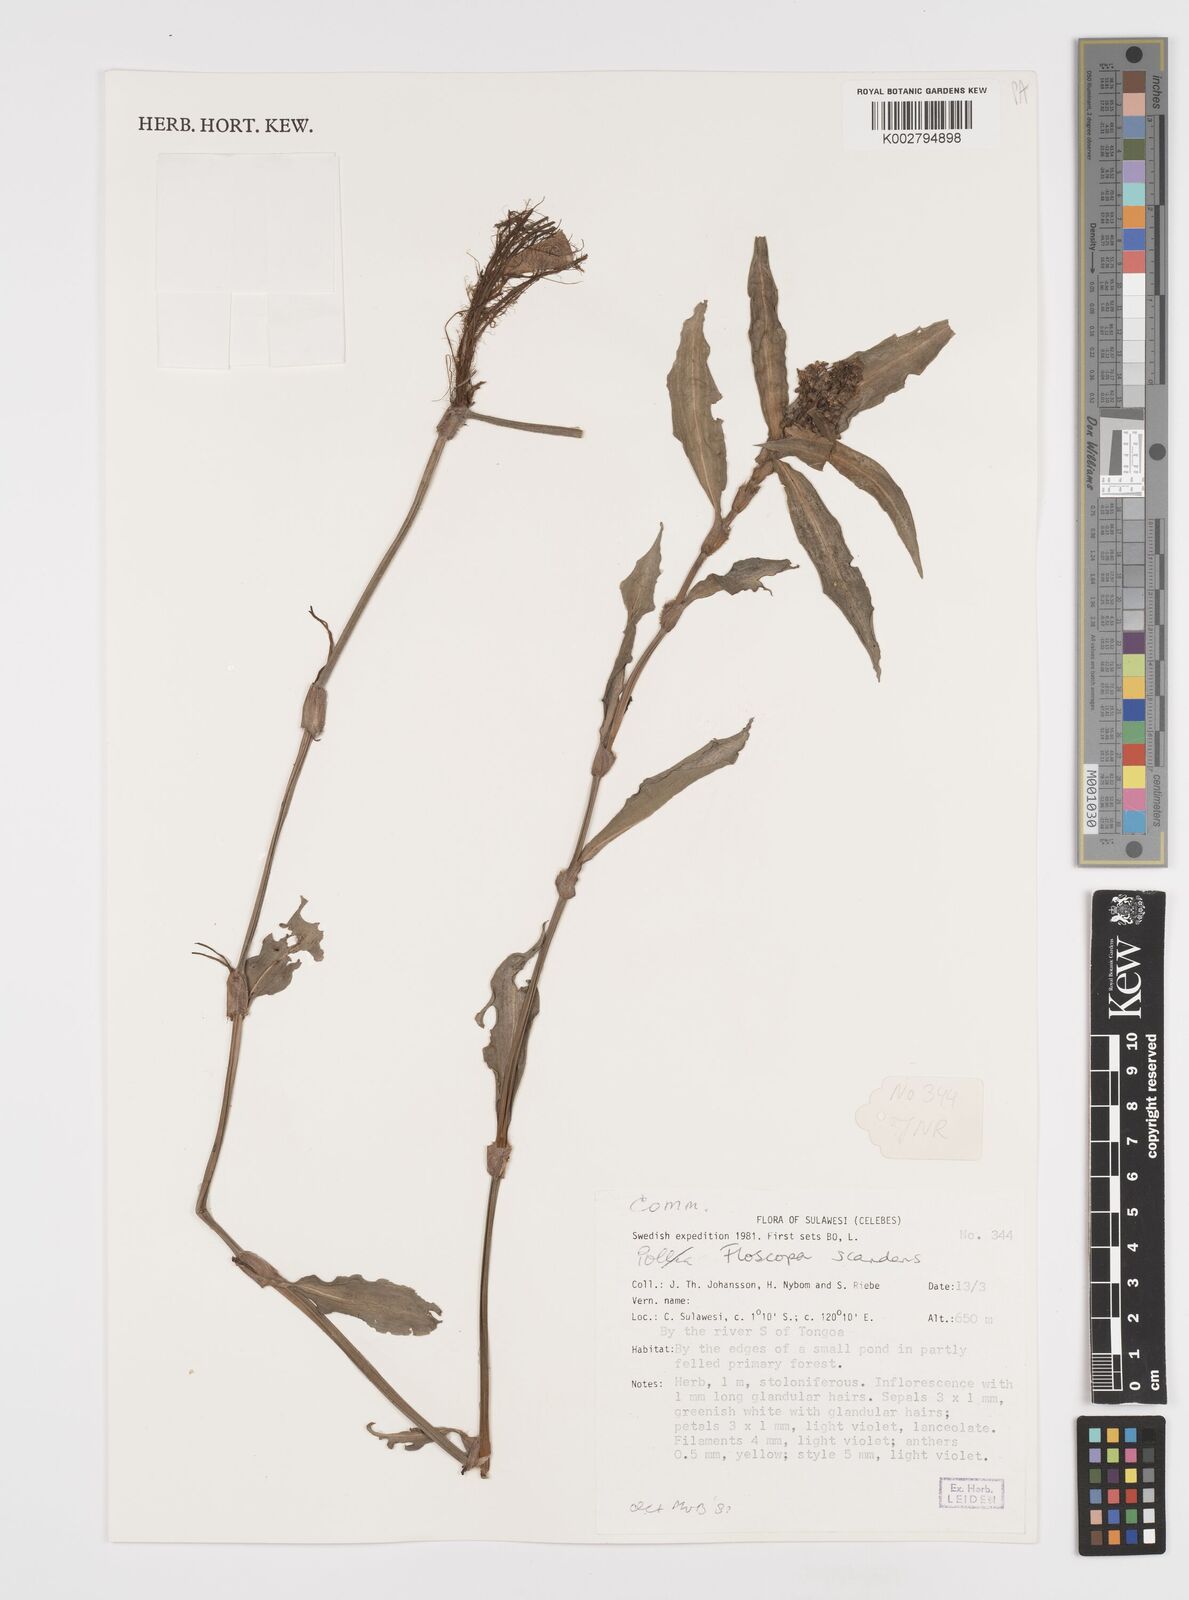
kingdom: Plantae
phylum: Tracheophyta
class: Liliopsida
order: Commelinales
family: Commelinaceae
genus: Floscopa
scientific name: Floscopa scandens
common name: Climbing flower cup
